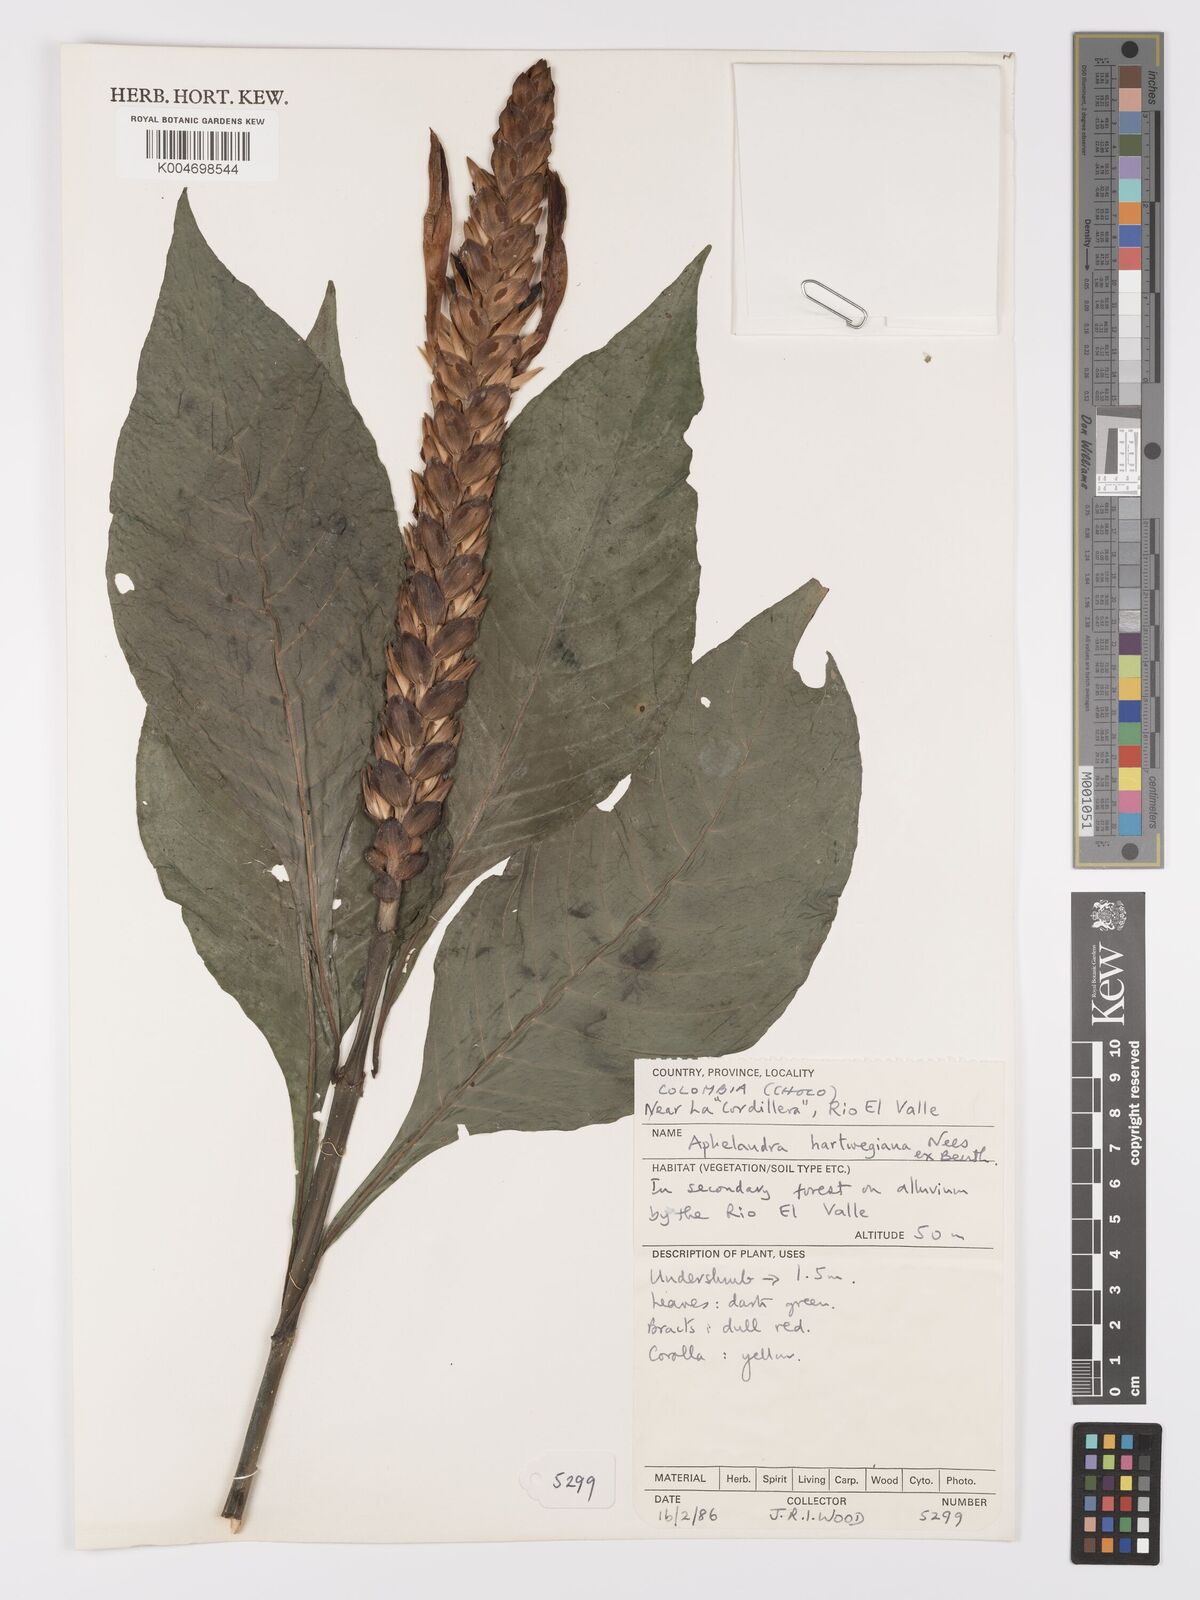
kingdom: Plantae
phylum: Tracheophyta
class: Magnoliopsida
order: Lamiales
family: Acanthaceae
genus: Aphelandra
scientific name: Aphelandra hartwegiana
